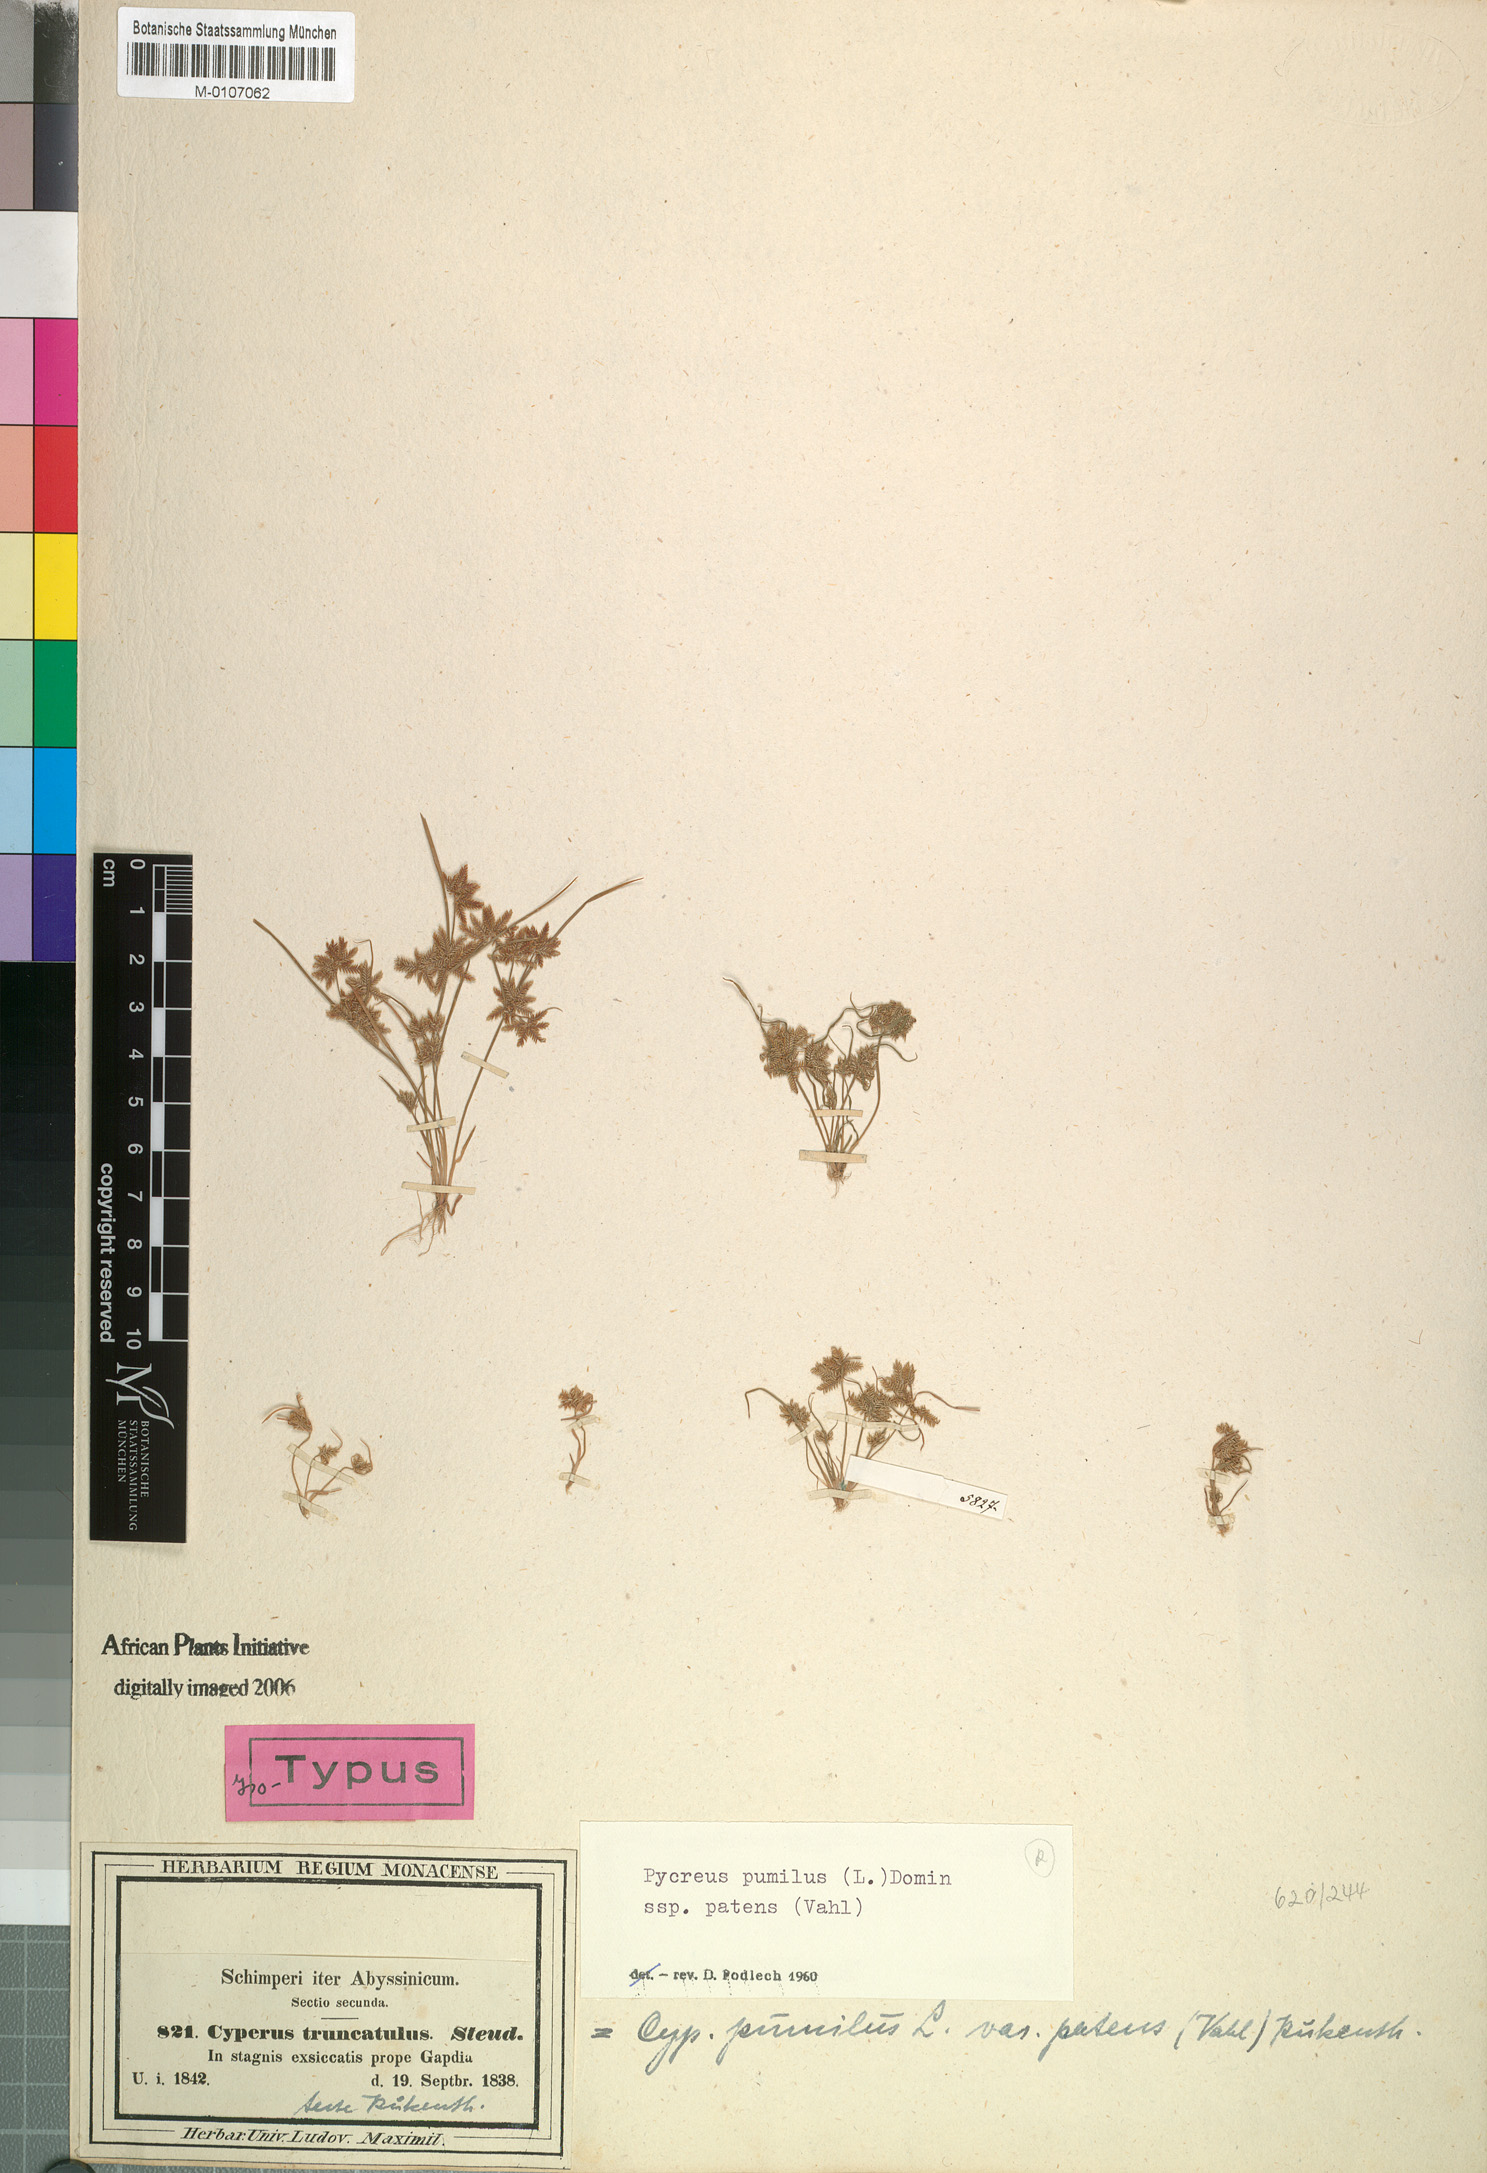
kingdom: Plantae
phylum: Tracheophyta
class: Liliopsida
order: Poales
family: Cyperaceae
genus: Cyperus
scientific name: Cyperus pumilus
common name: Low flatsedge
